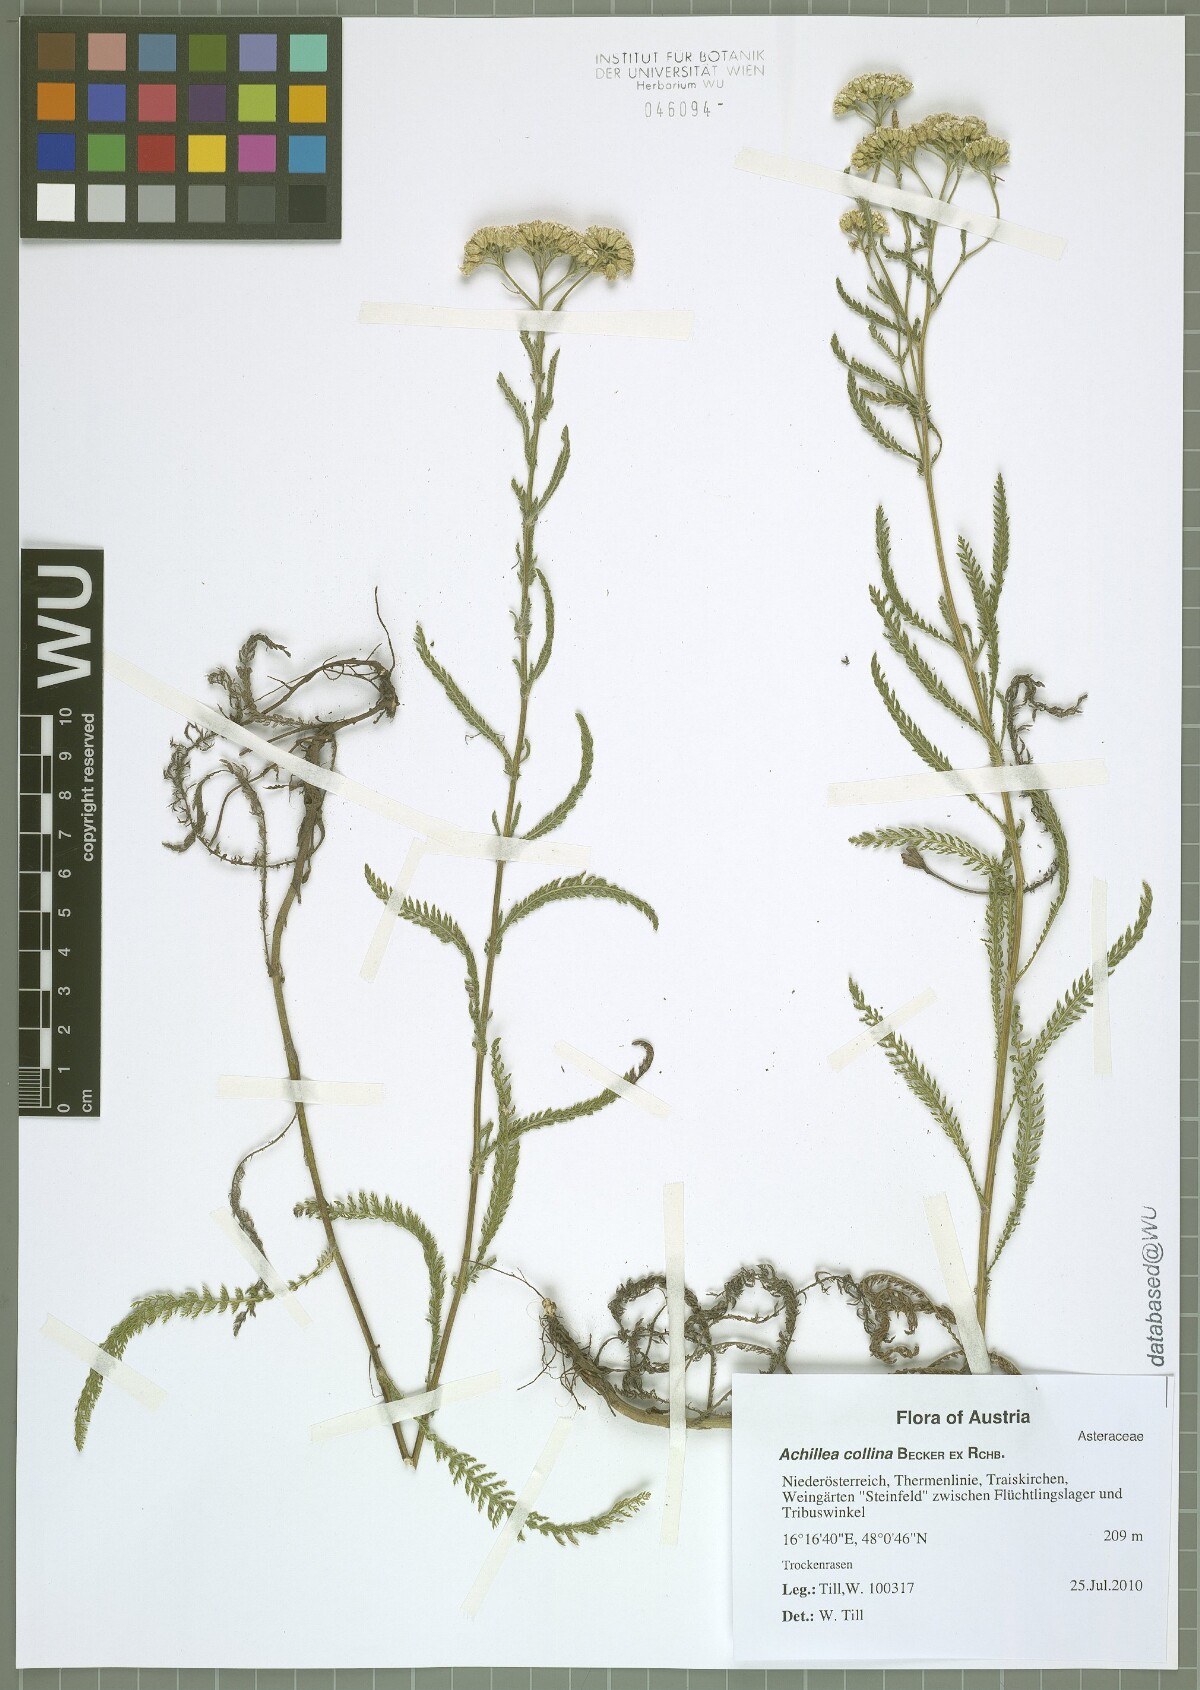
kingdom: Plantae
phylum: Tracheophyta
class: Magnoliopsida
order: Asterales
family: Asteraceae
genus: Achillea
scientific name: Achillea collina
